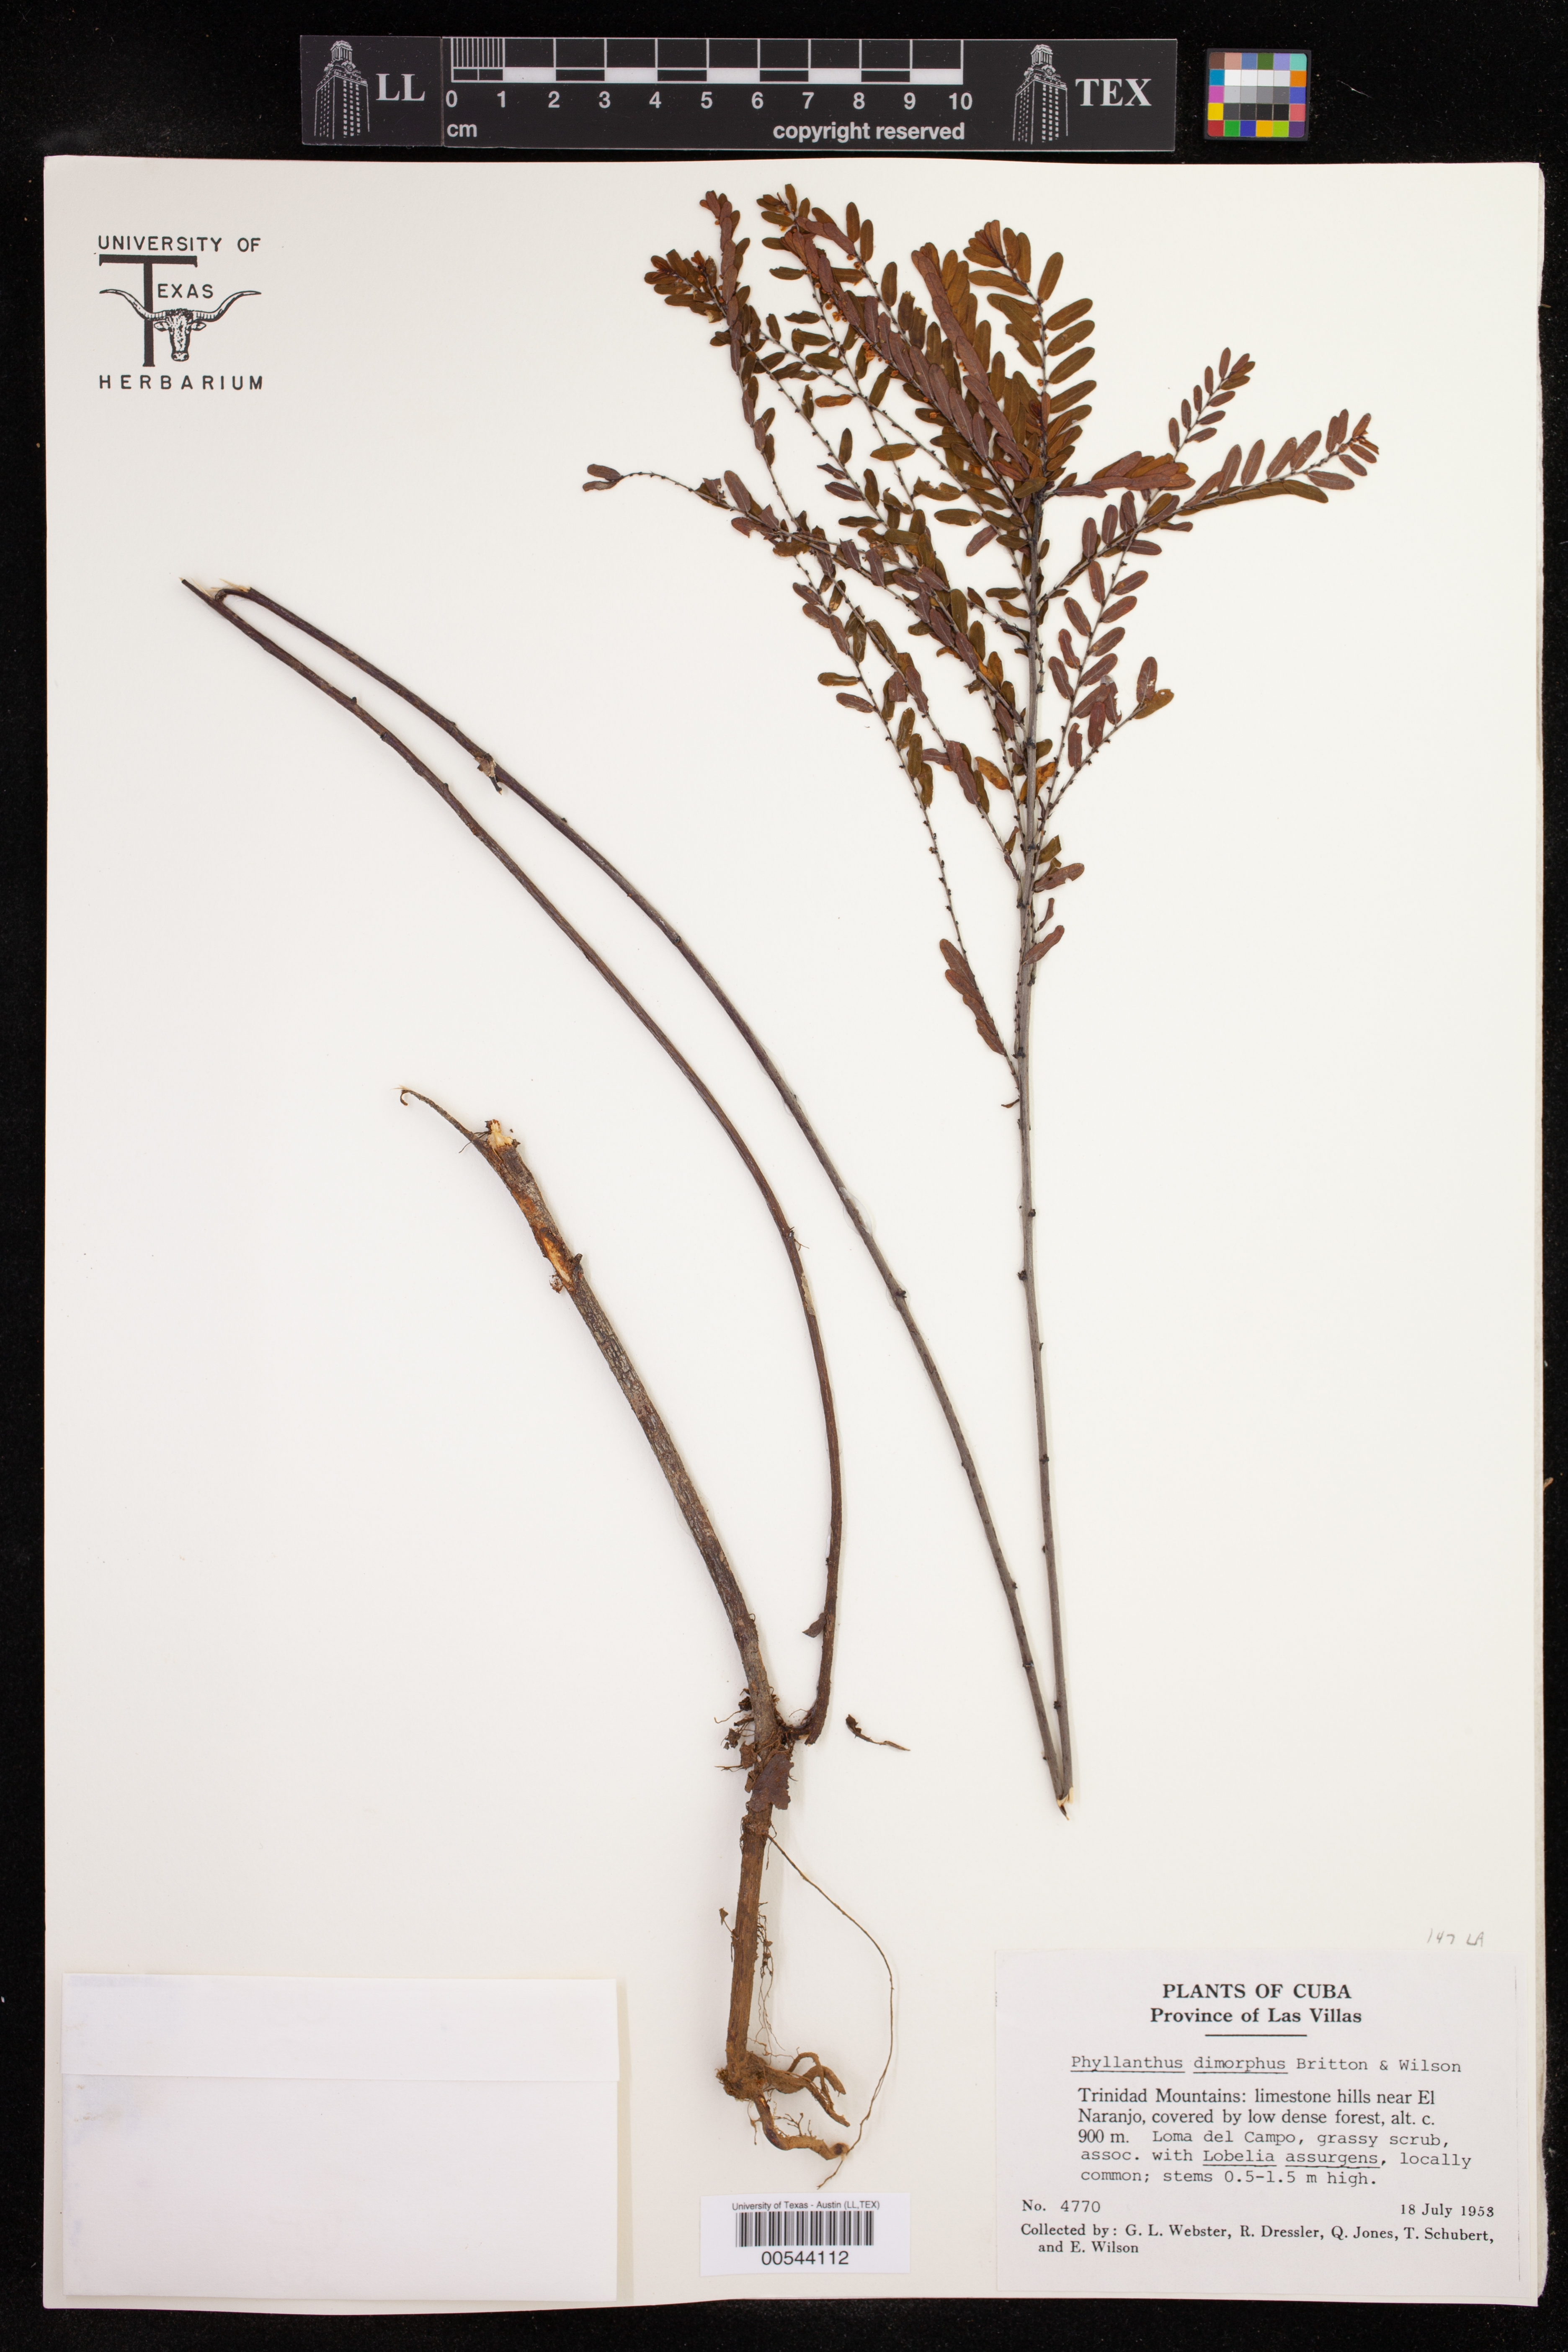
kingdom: Plantae
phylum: Tracheophyta
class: Magnoliopsida
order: Malpighiales
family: Phyllanthaceae
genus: Phyllanthus
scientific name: Phyllanthus dimorphus
